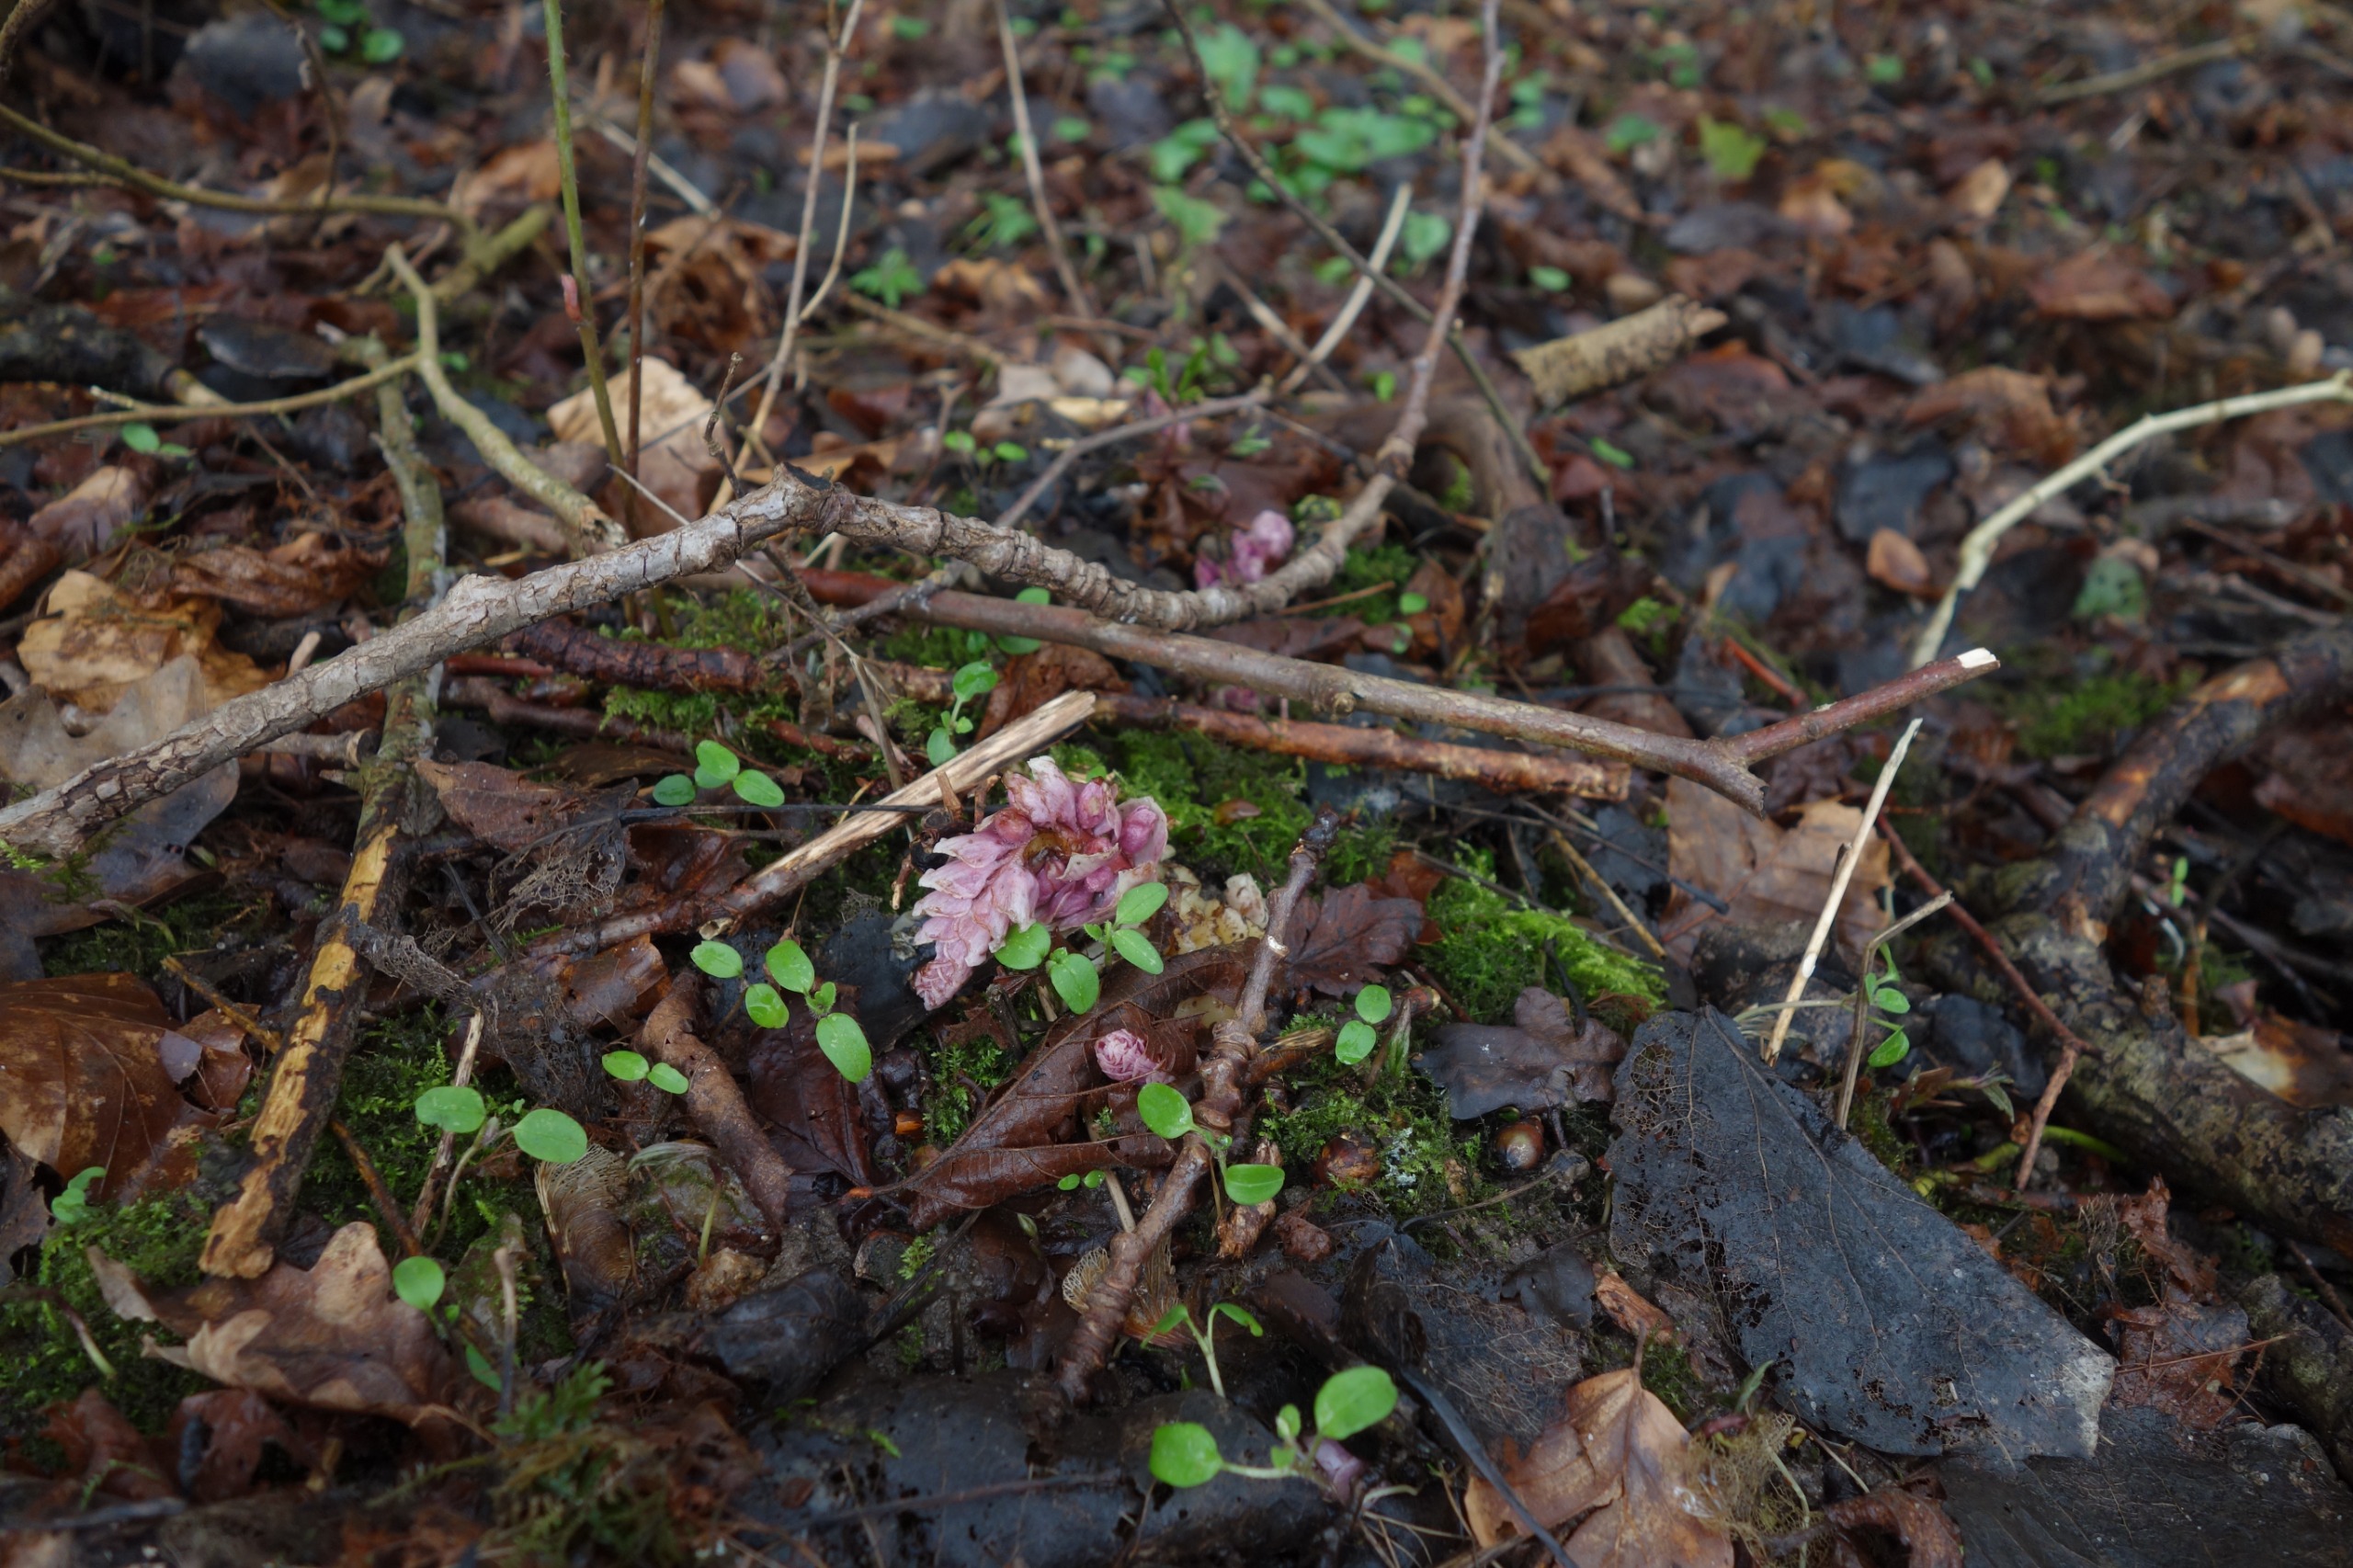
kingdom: Plantae
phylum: Tracheophyta
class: Magnoliopsida
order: Lamiales
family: Orobanchaceae
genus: Lathraea
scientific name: Lathraea squamaria
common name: Skælrod
